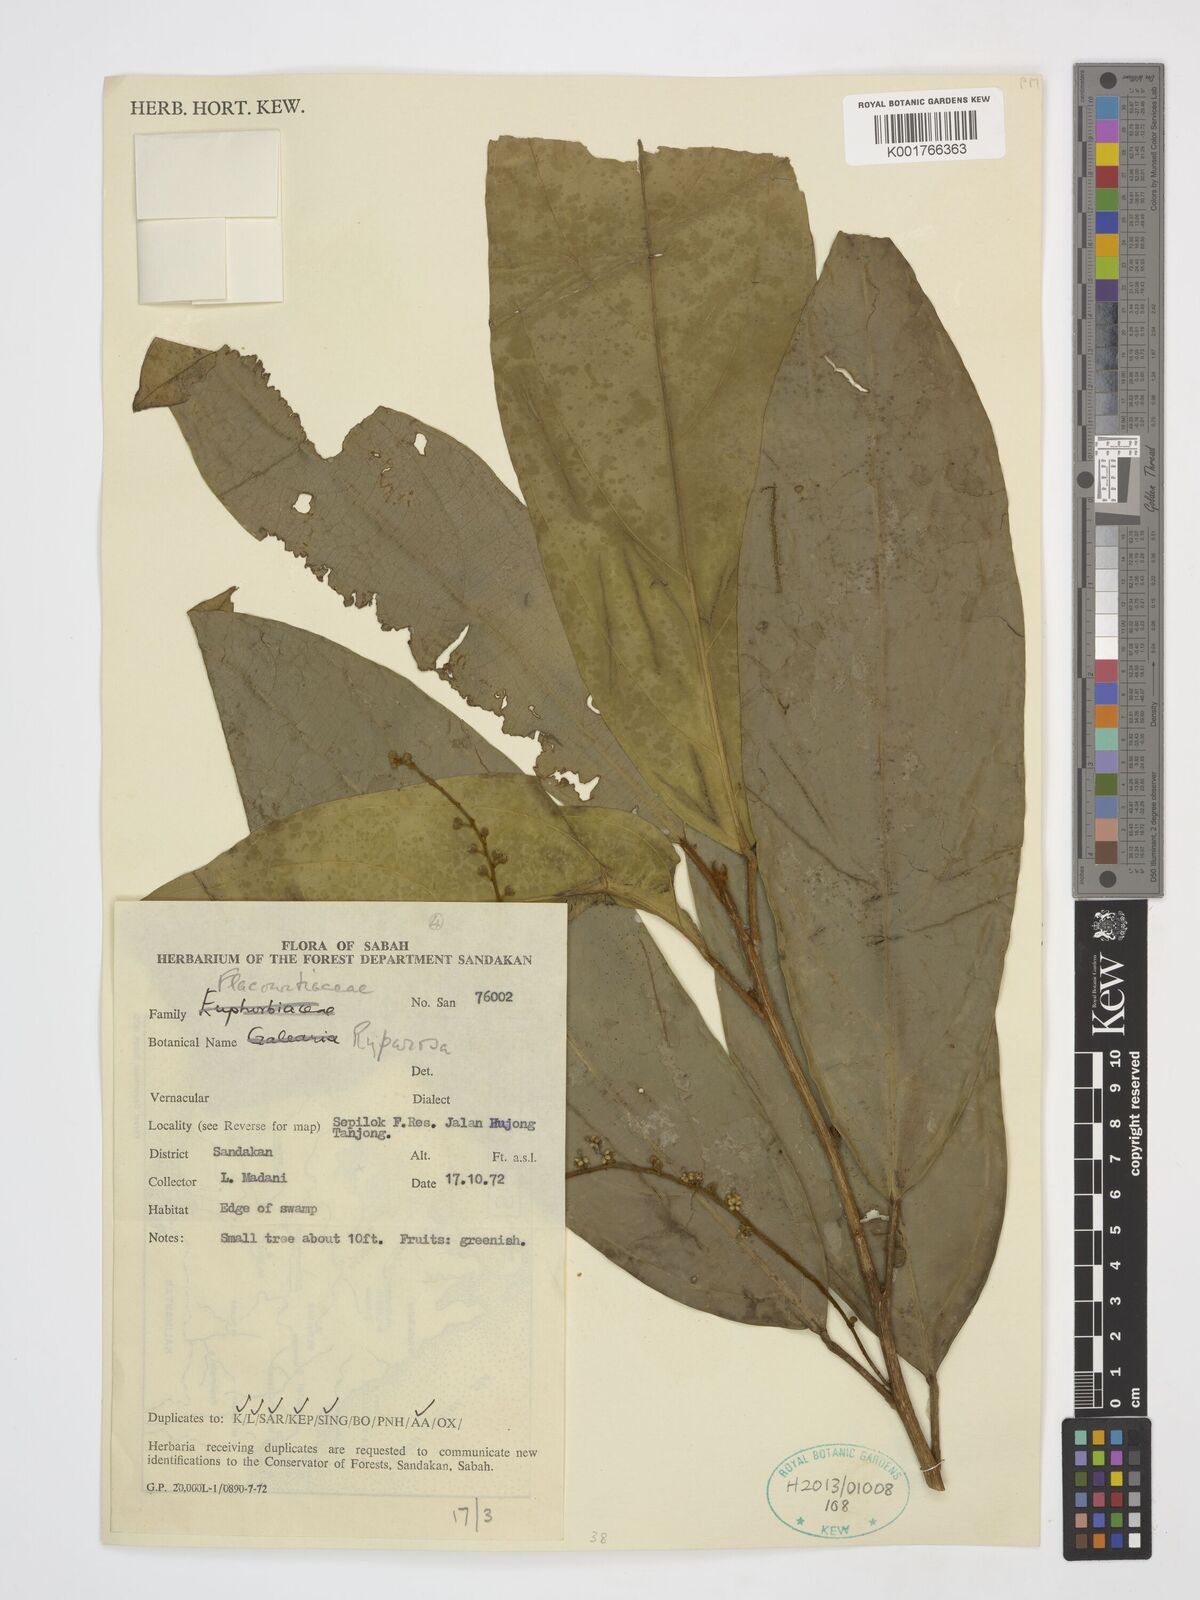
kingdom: Plantae
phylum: Tracheophyta
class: Magnoliopsida
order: Malpighiales
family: Achariaceae
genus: Ryparosa
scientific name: Ryparosa
